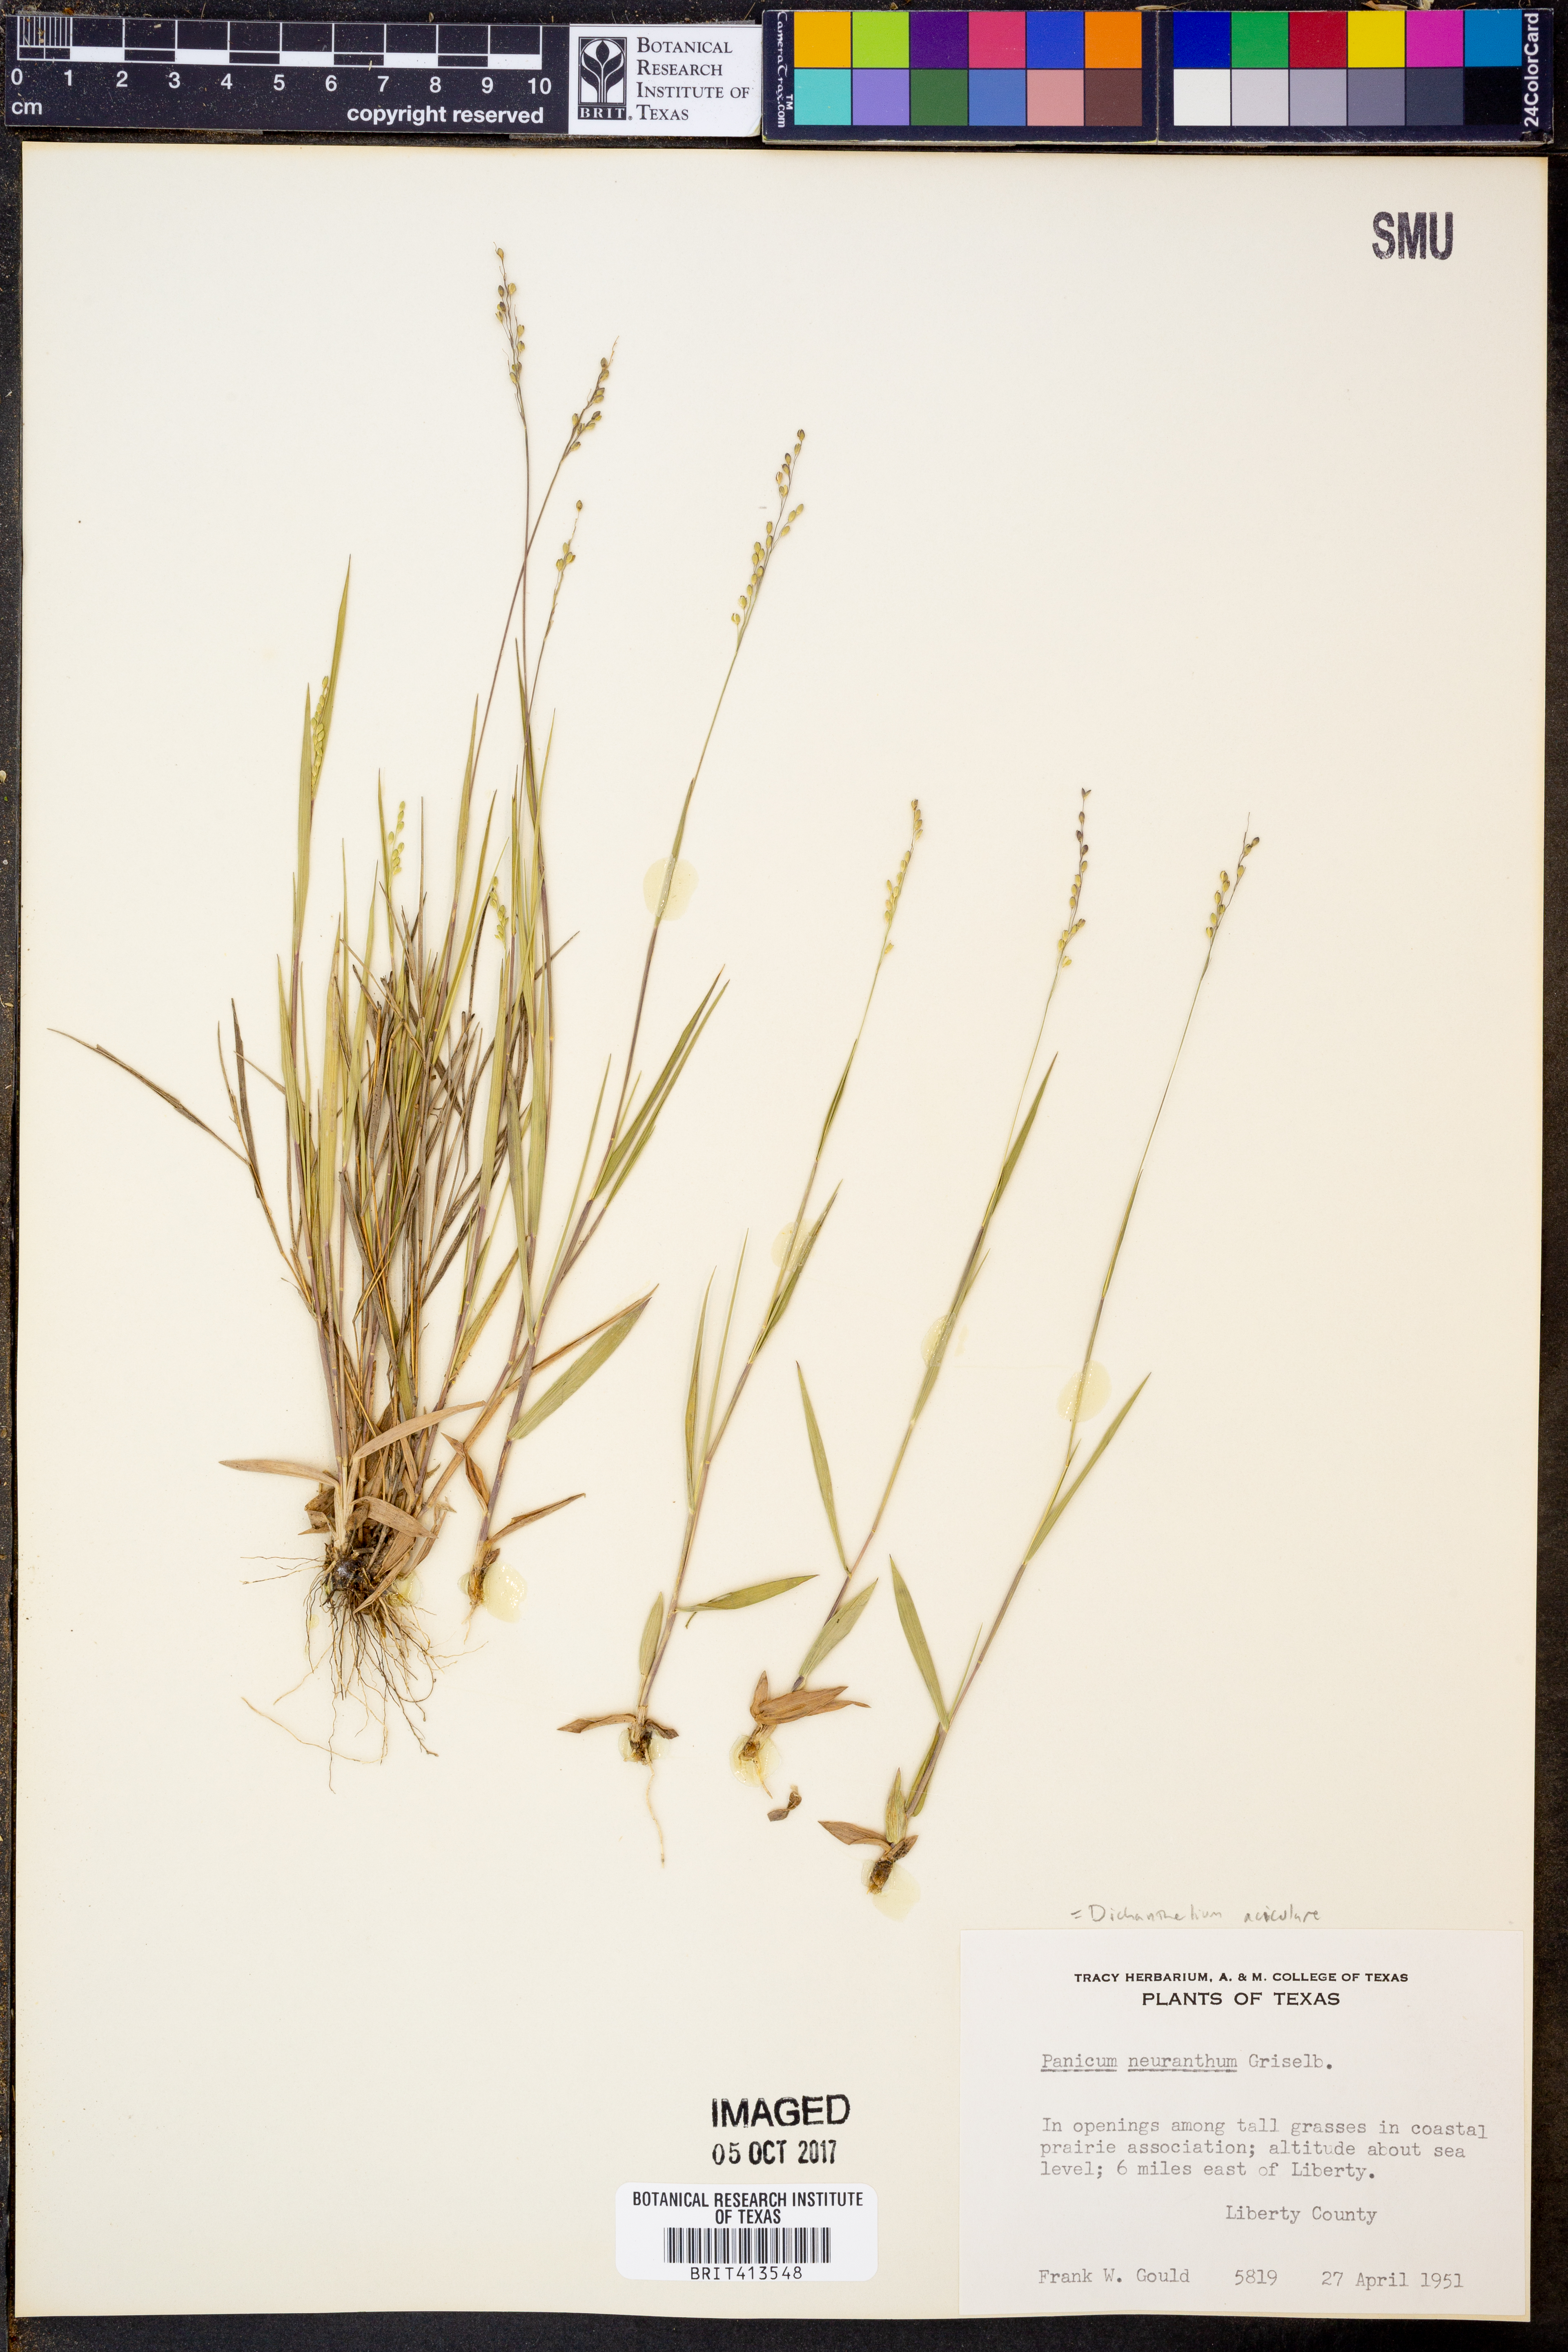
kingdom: Plantae
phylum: Tracheophyta
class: Liliopsida
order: Poales
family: Poaceae
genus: Dichanthelium
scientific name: Dichanthelium neuranthum
